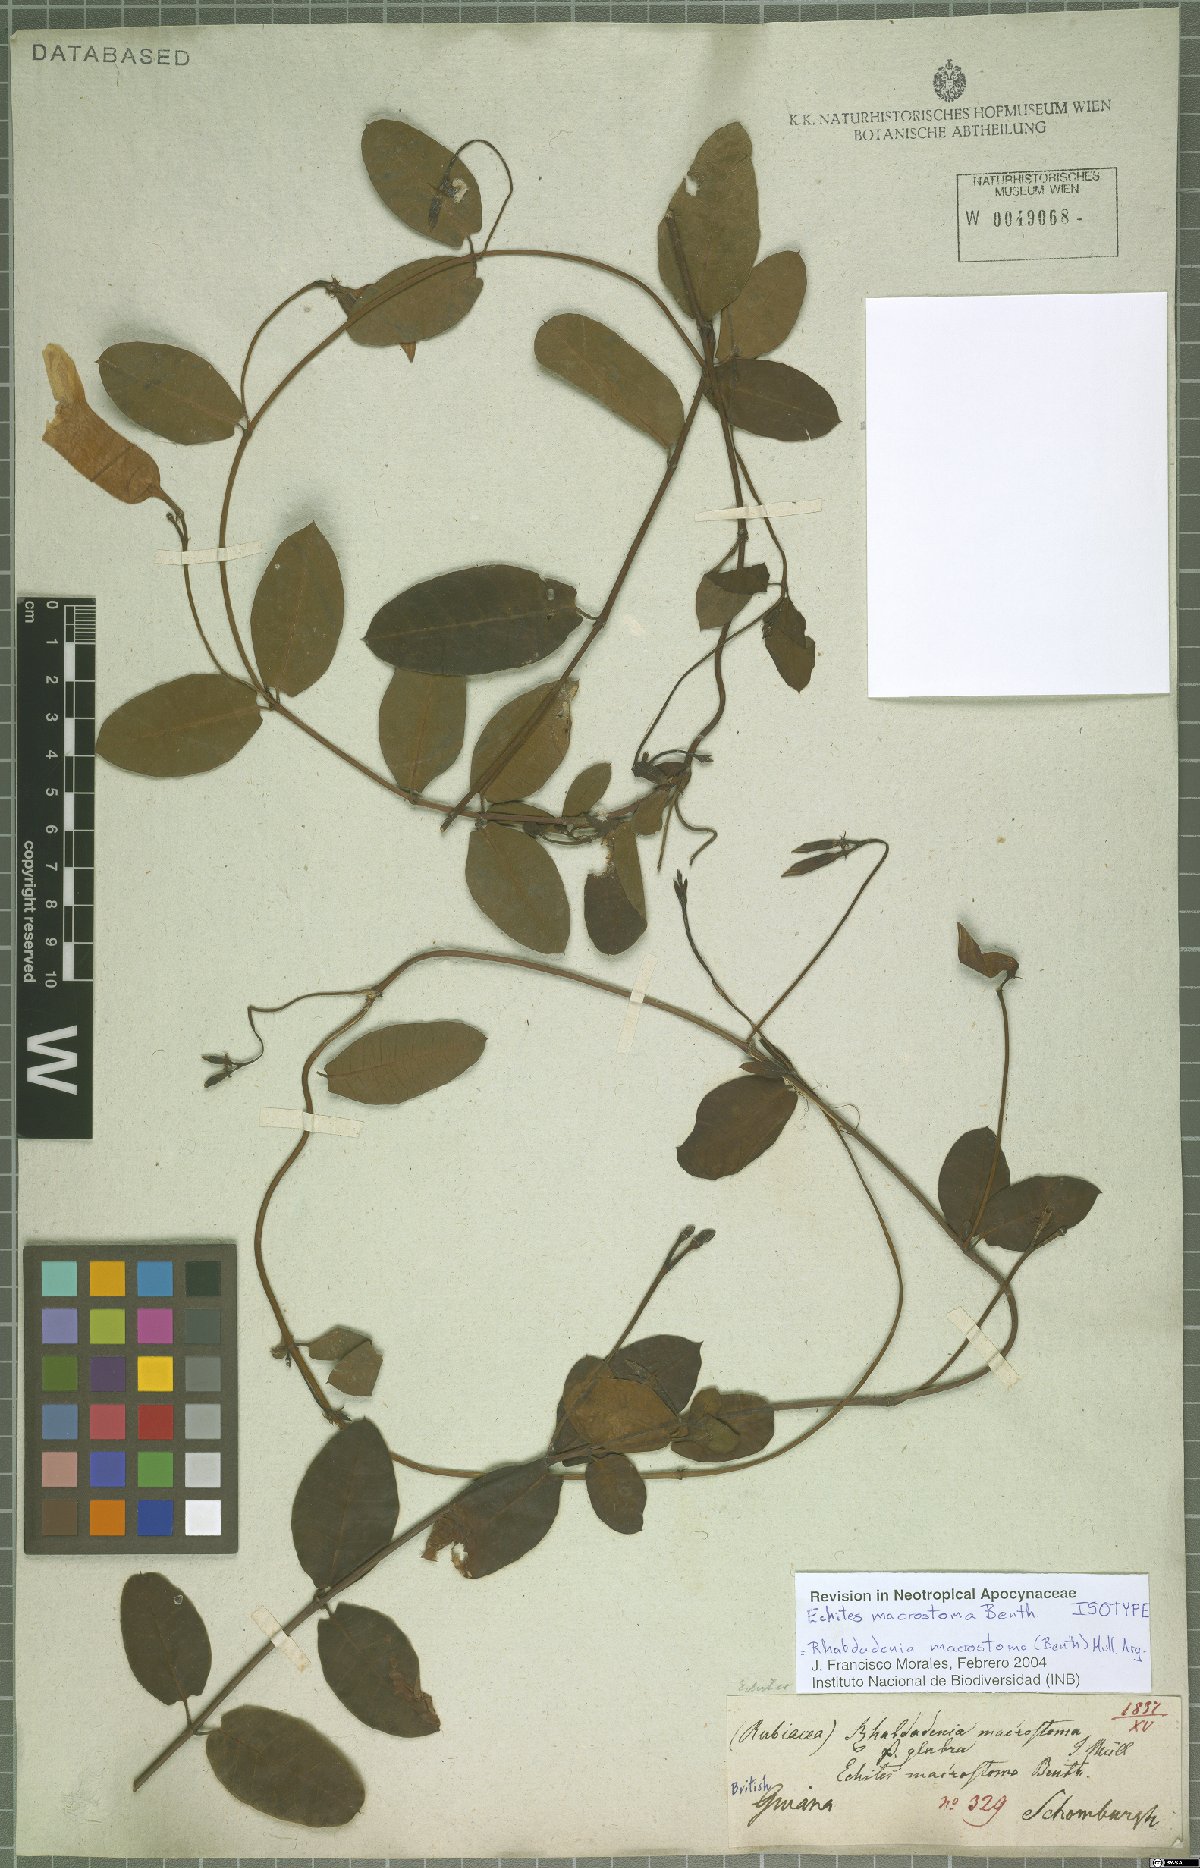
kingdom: Plantae
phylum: Tracheophyta
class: Magnoliopsida
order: Gentianales
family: Apocynaceae
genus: Rhabdadenia
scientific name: Rhabdadenia madida
